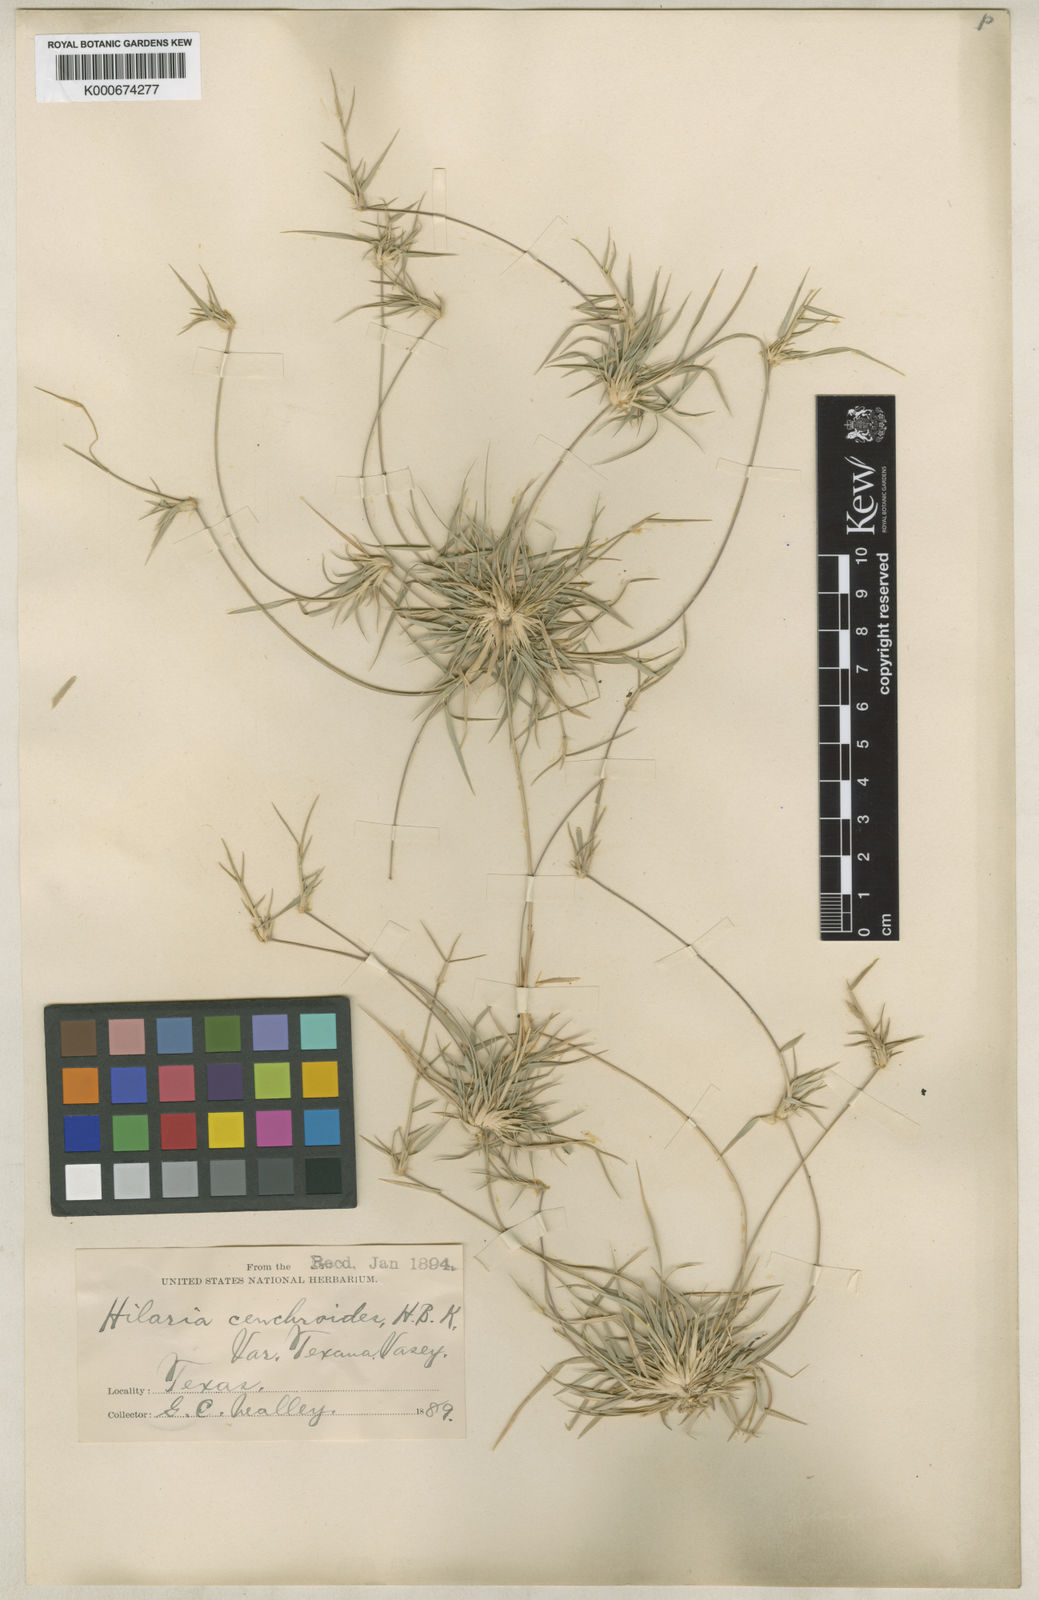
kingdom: Plantae
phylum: Tracheophyta
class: Liliopsida
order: Poales
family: Poaceae
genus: Hilaria
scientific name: Hilaria belangeri
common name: Curly-mesquite
